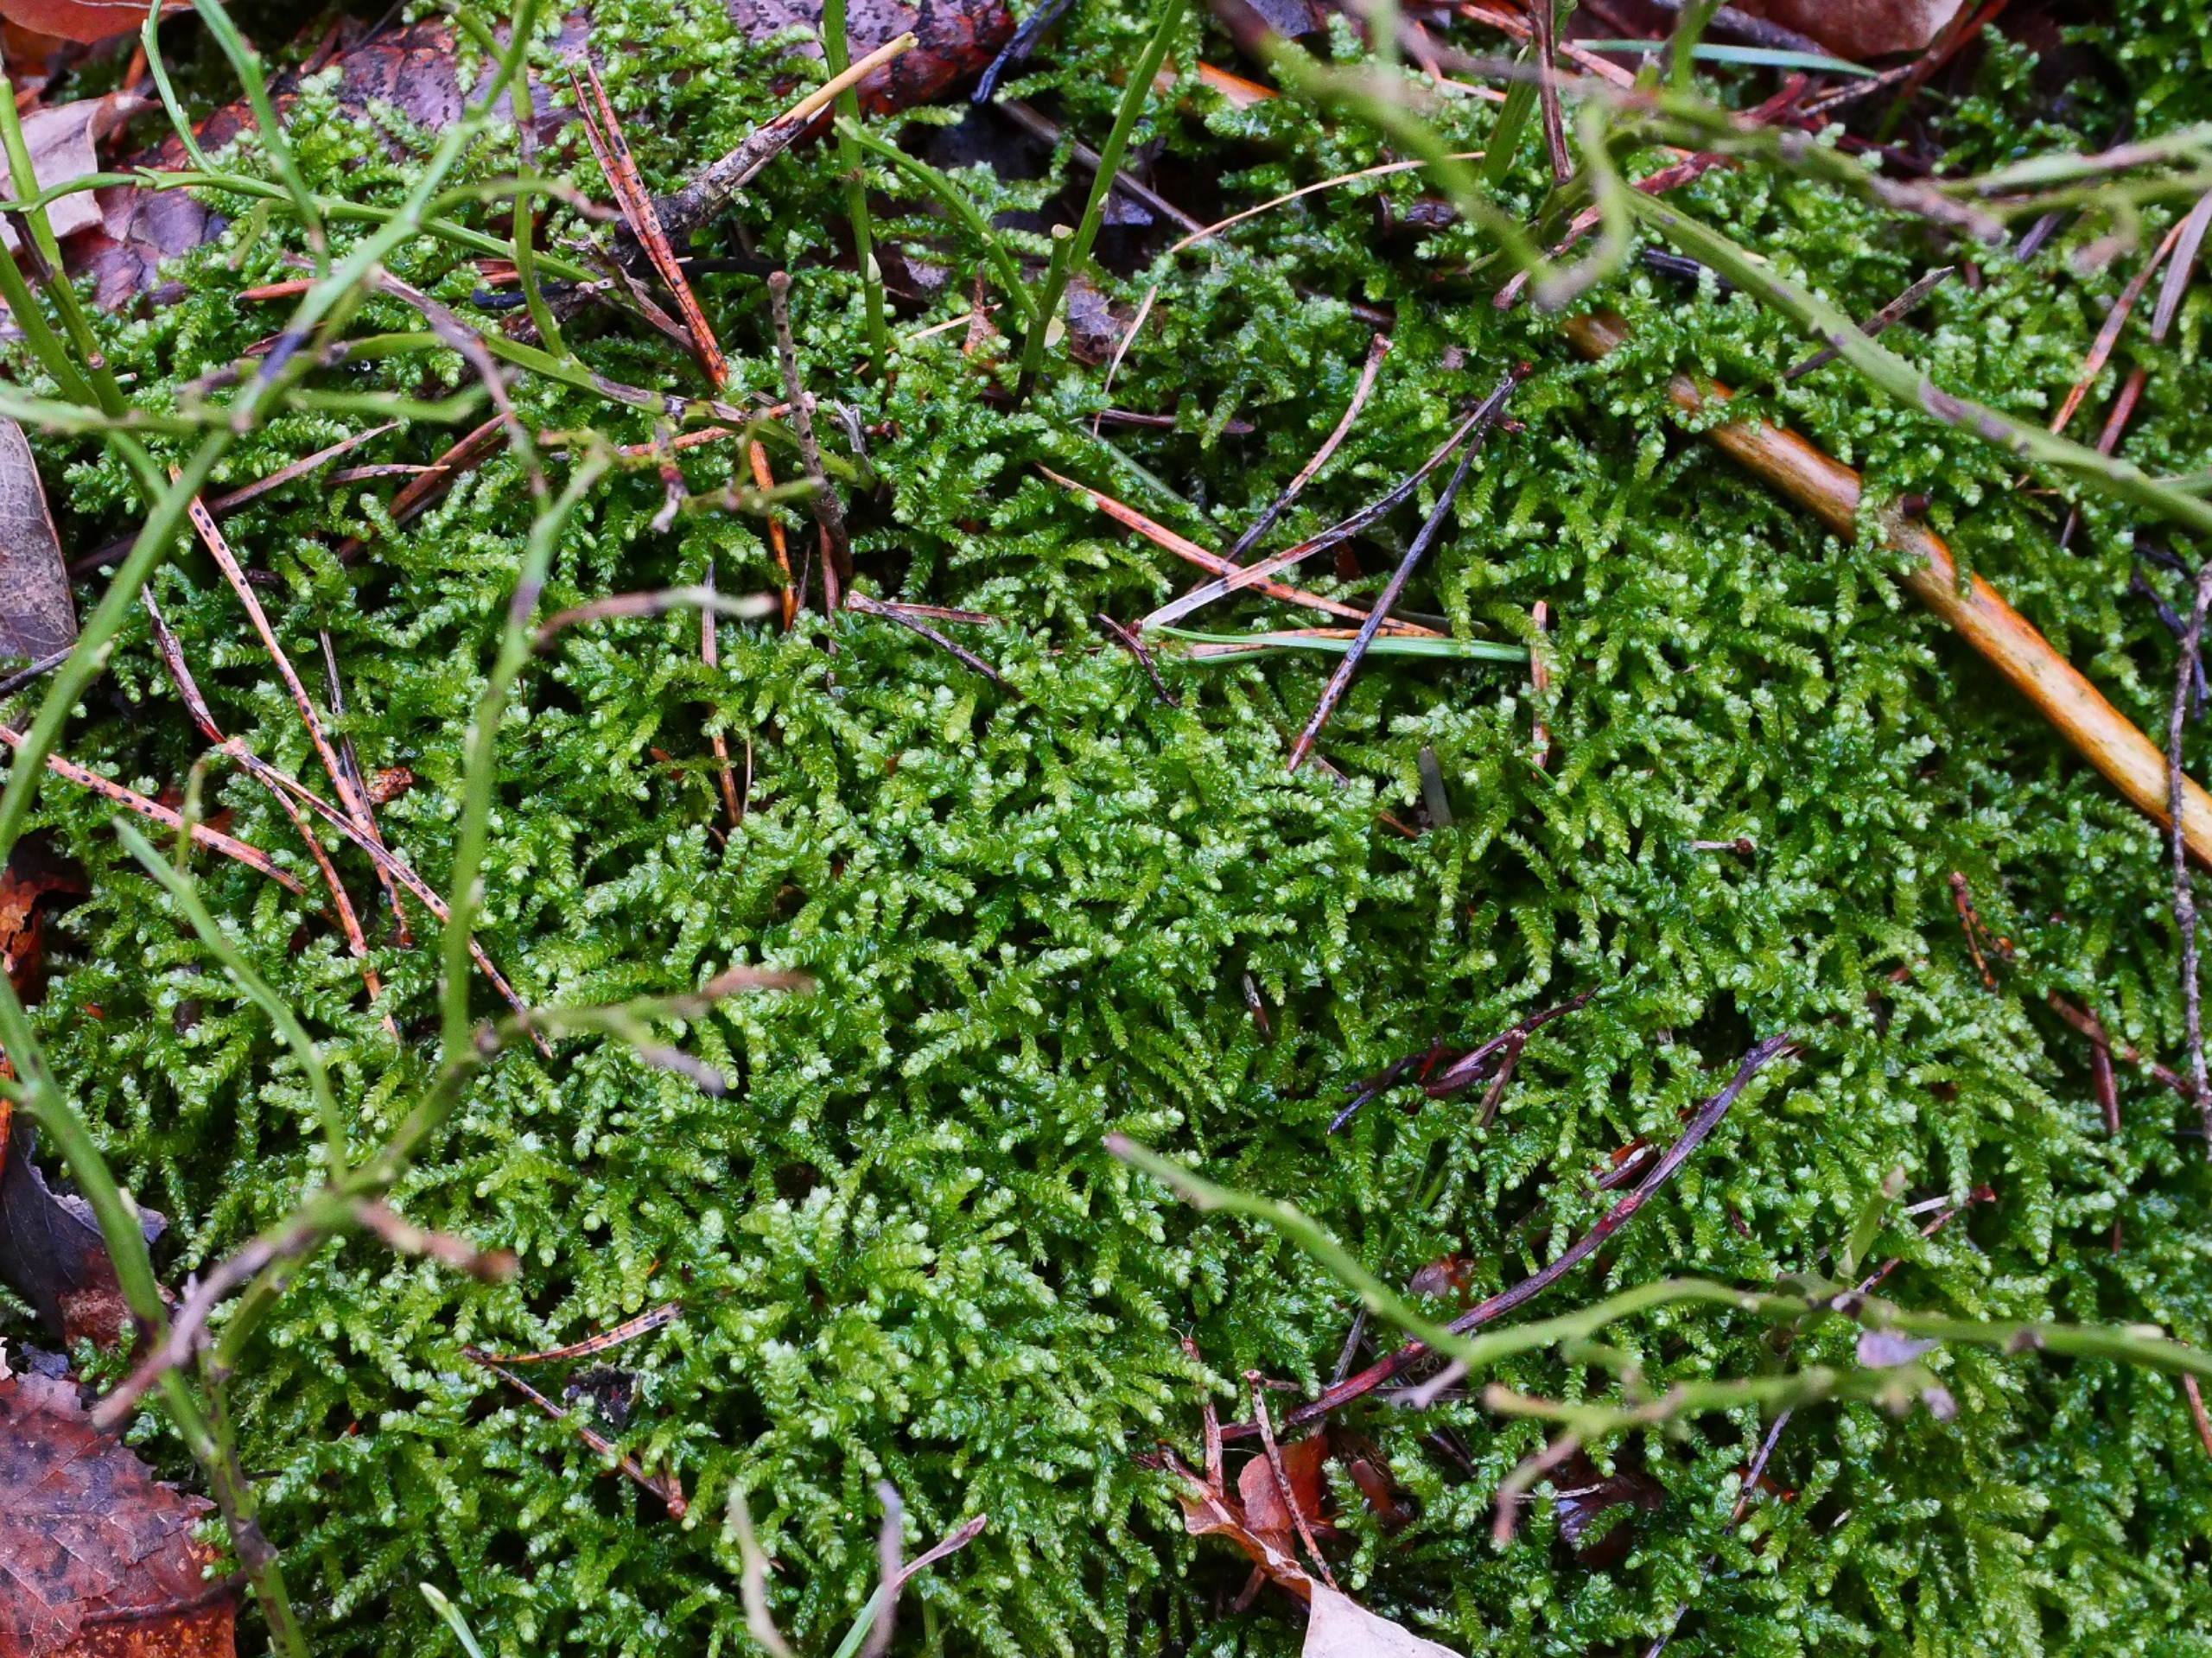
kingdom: Plantae
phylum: Bryophyta
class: Bryopsida
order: Hypnales
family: Brachytheciaceae
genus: Eurhynchium
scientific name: Eurhynchium angustirete
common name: Stor næbmos
